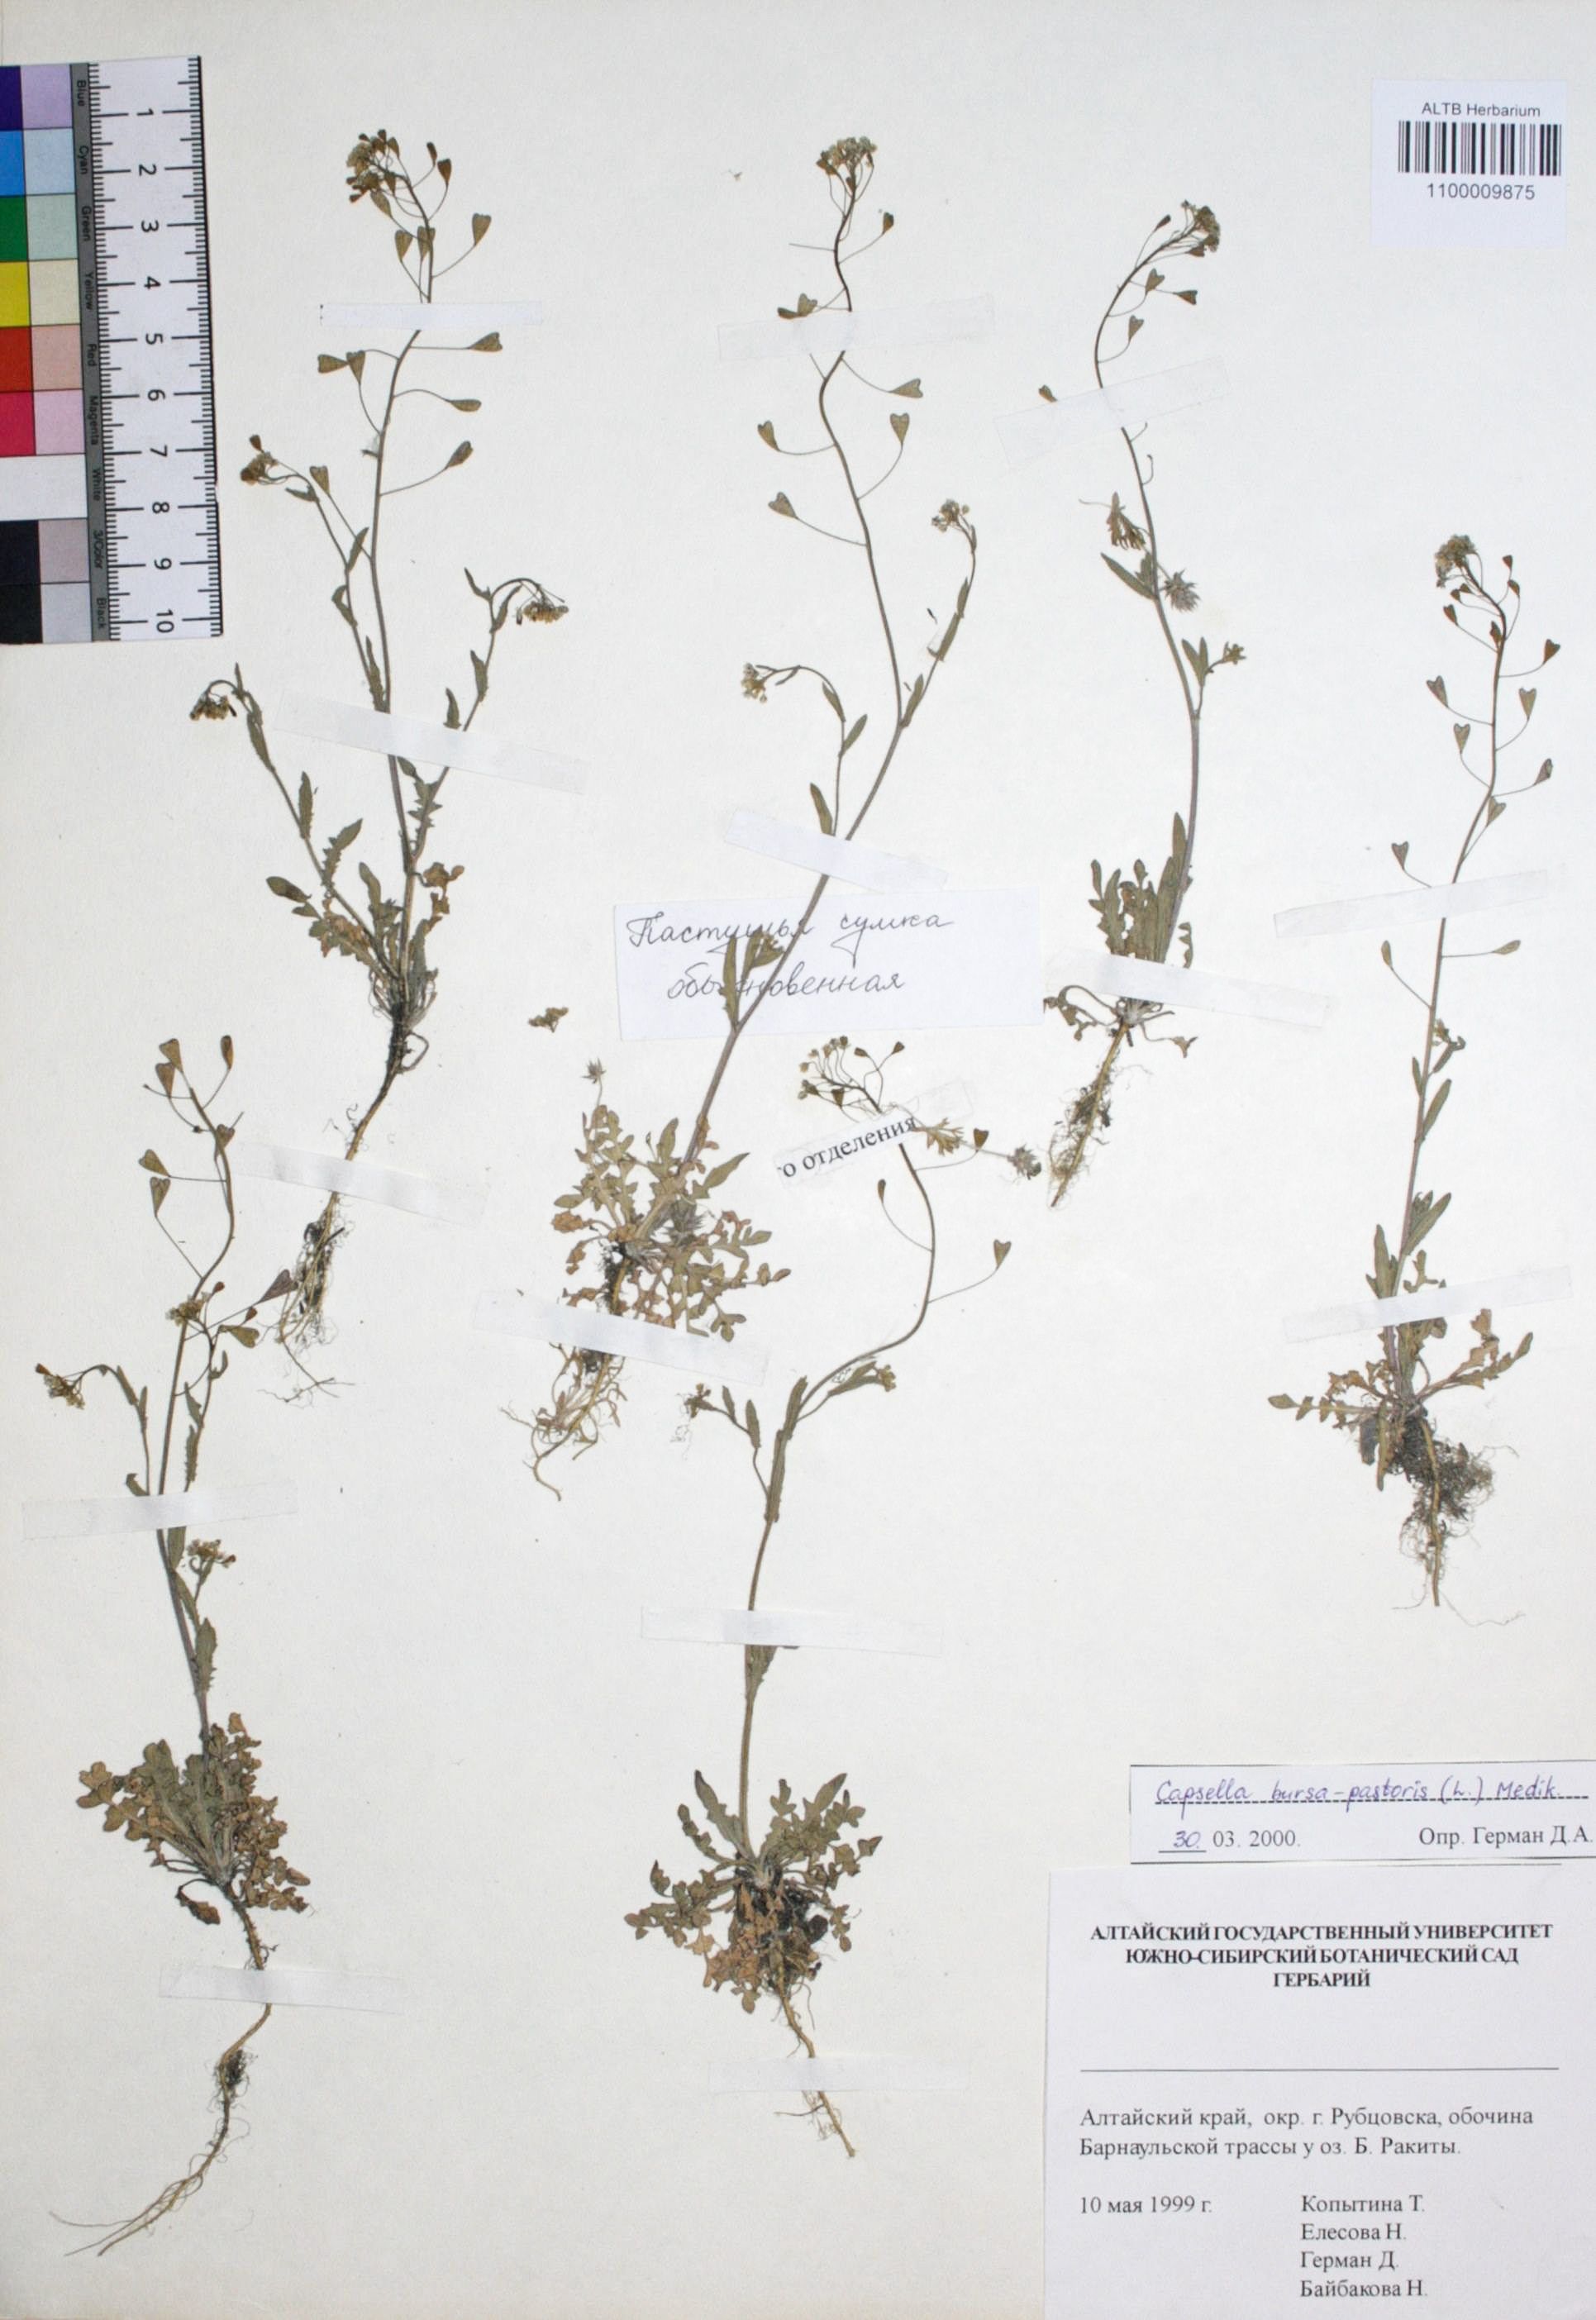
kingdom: Plantae
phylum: Tracheophyta
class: Magnoliopsida
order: Brassicales
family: Brassicaceae
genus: Capsella
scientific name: Capsella bursa-pastoris
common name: Shepherd's purse
